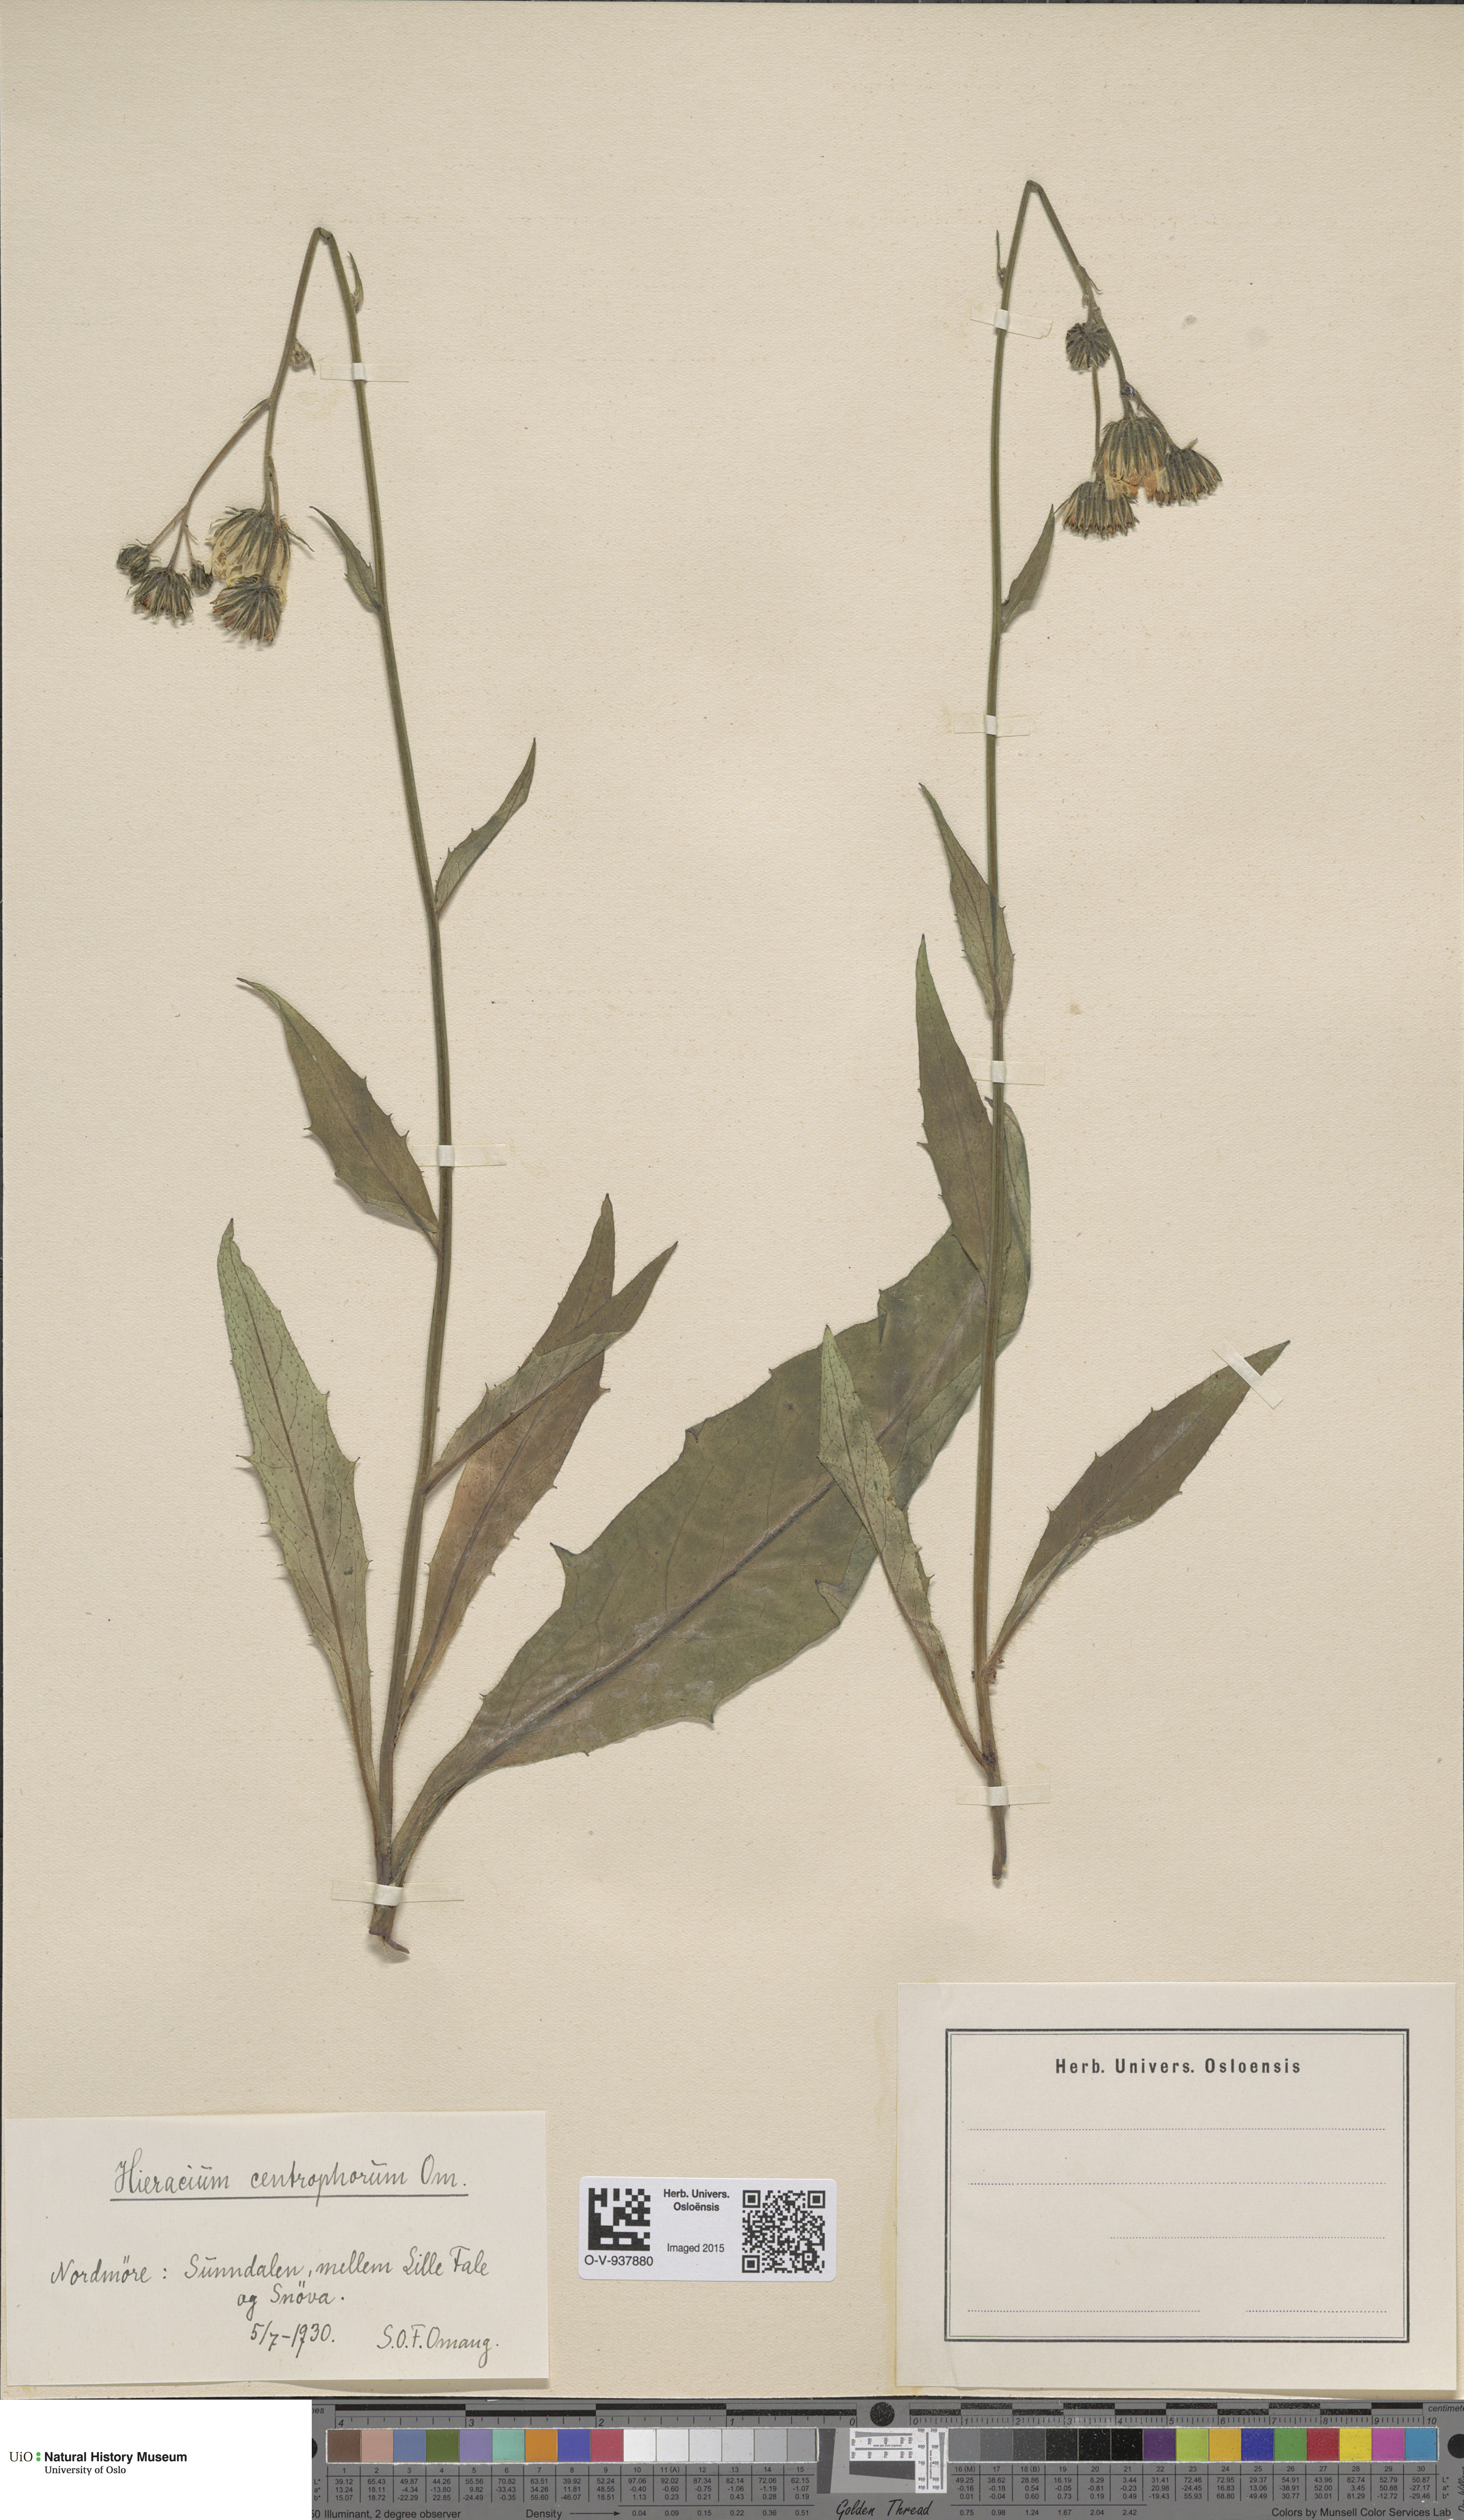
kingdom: Plantae
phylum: Tracheophyta
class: Magnoliopsida
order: Asterales
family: Asteraceae
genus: Hieracium
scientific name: Hieracium
